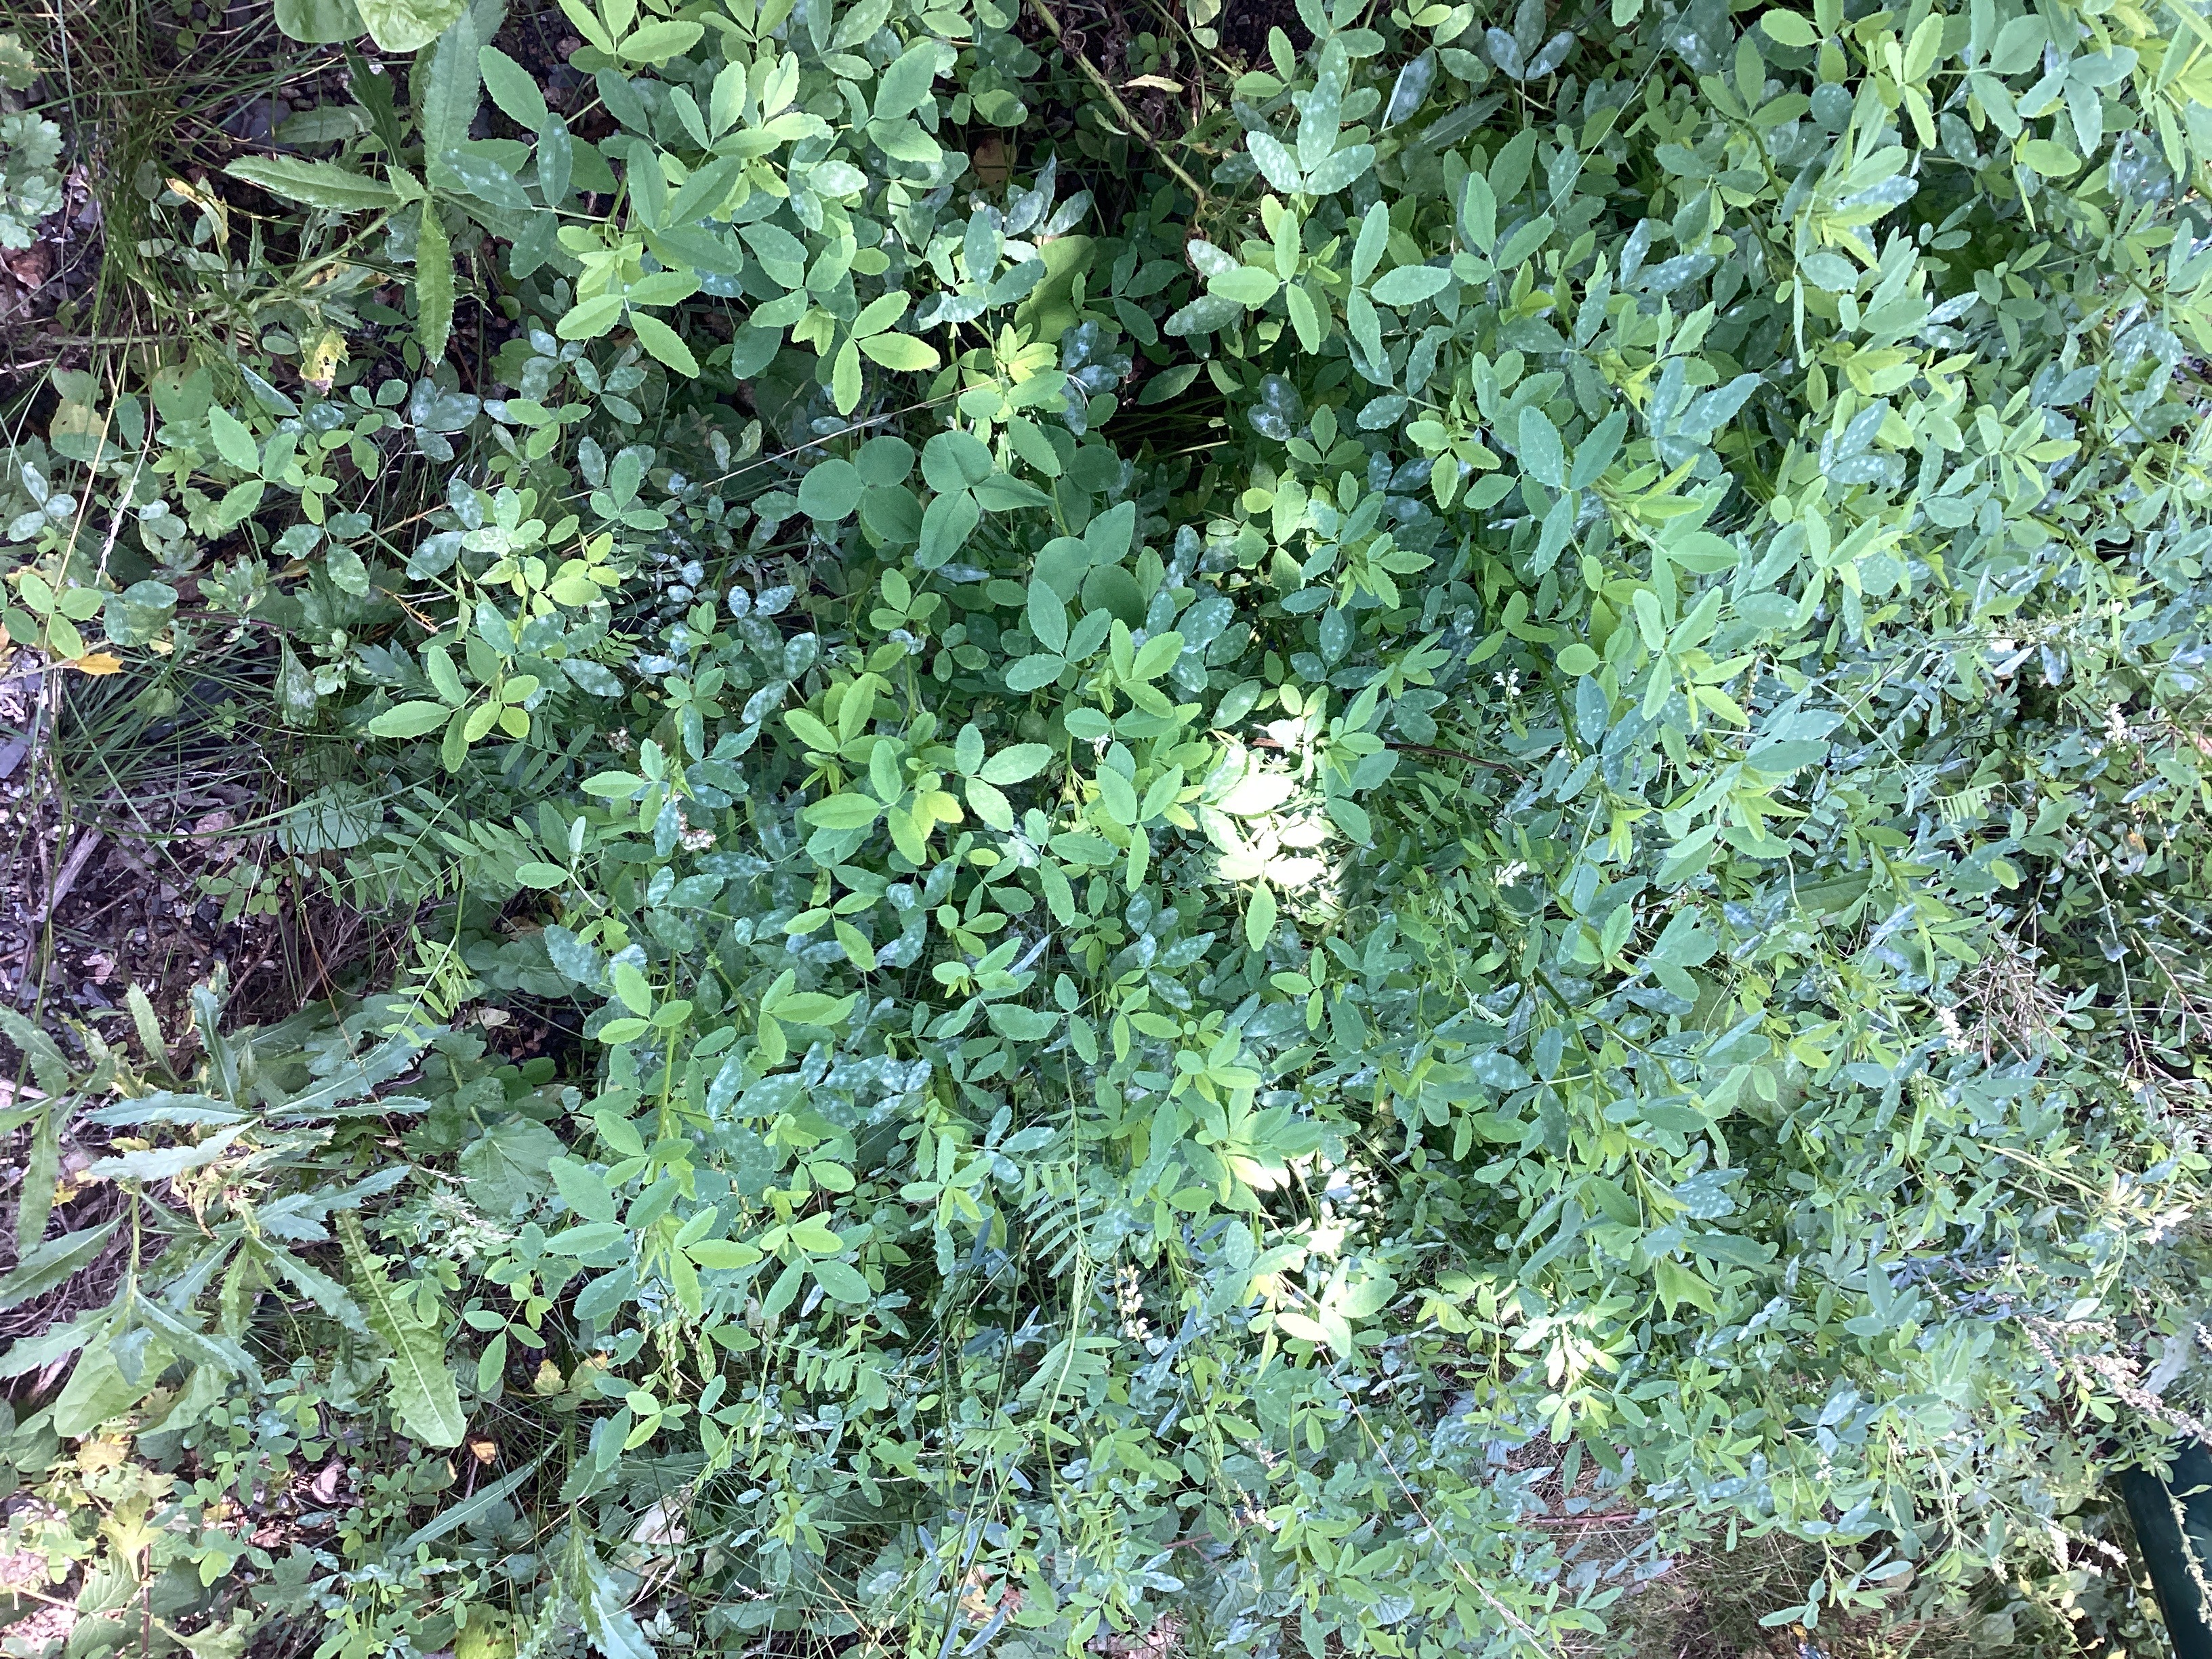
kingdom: Plantae
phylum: Tracheophyta
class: Magnoliopsida
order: Fabales
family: Fabaceae
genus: Melilotus
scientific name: Melilotus albus
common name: hvitsteinkløver
